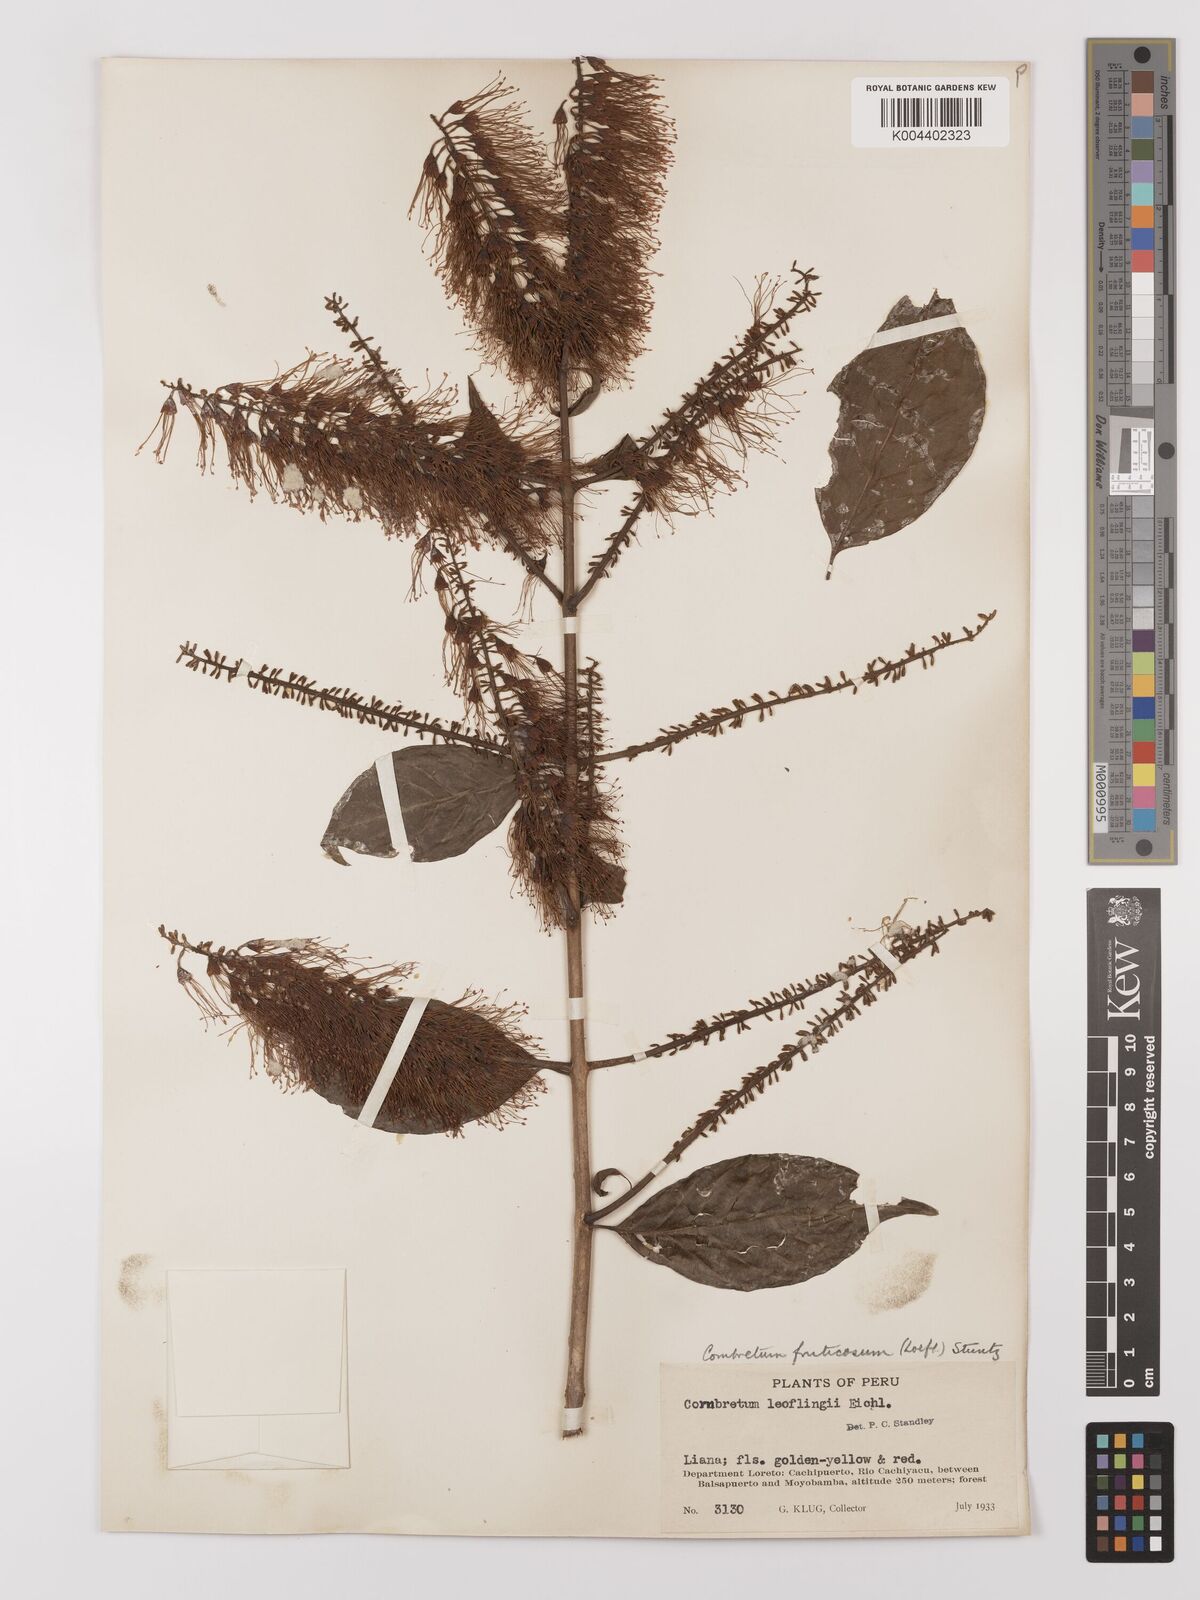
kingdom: Plantae
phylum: Tracheophyta
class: Magnoliopsida
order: Myrtales
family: Combretaceae
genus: Combretum
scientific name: Combretum fruticosum
